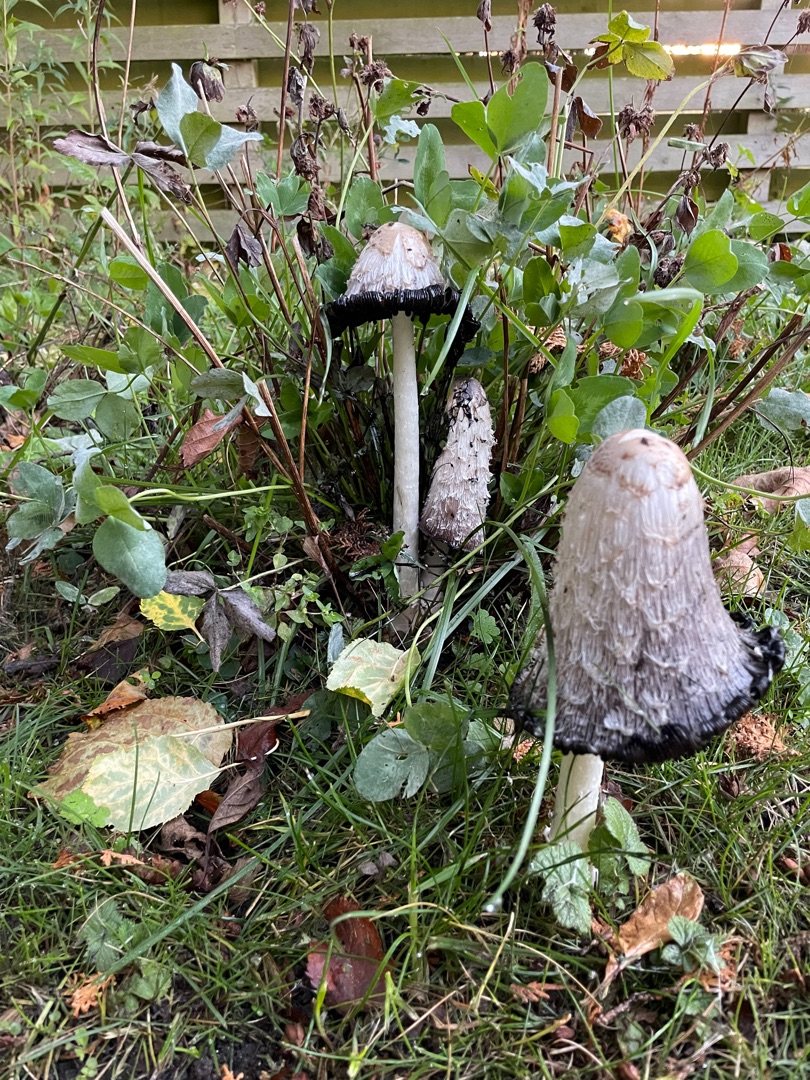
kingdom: Fungi
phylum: Basidiomycota
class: Agaricomycetes
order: Agaricales
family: Agaricaceae
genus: Coprinus
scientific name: Coprinus comatus
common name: Stor parykhat
